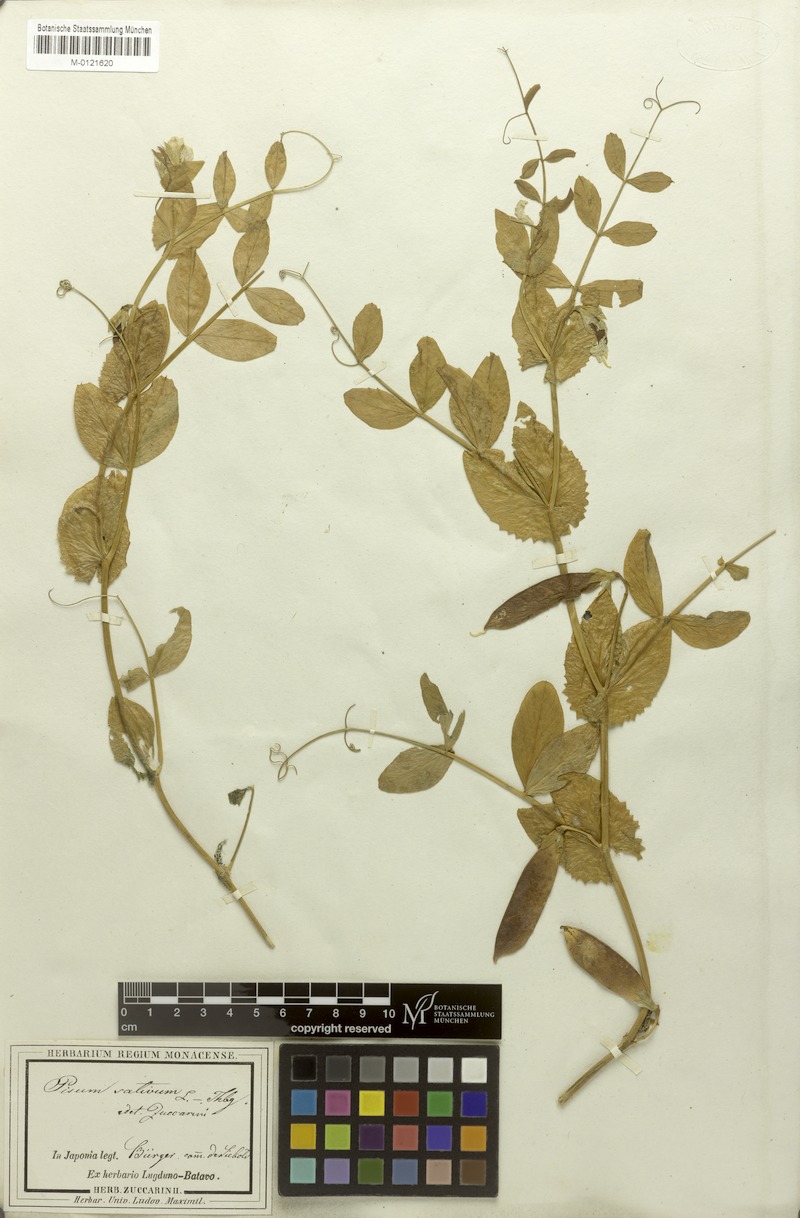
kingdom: Plantae
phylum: Tracheophyta
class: Magnoliopsida
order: Fabales
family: Fabaceae
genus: Lathyrus
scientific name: Lathyrus oleraceus
